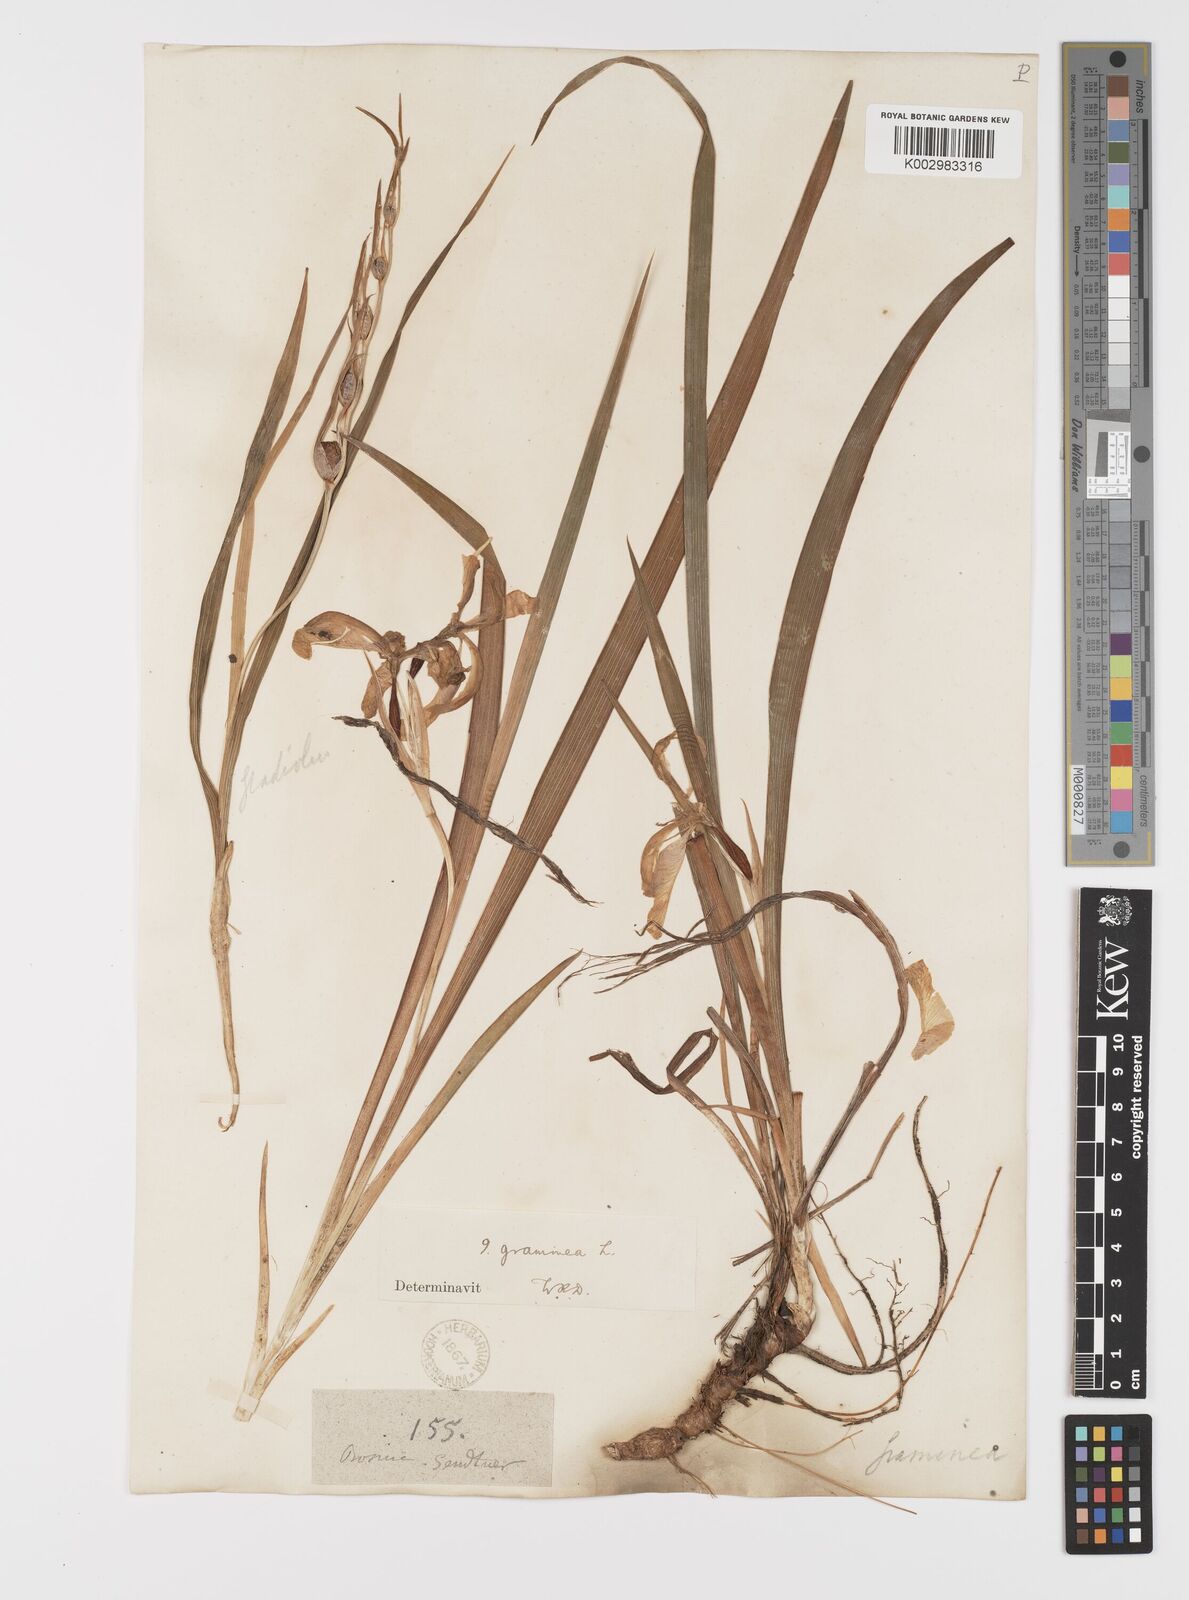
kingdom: Plantae
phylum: Tracheophyta
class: Liliopsida
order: Asparagales
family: Iridaceae
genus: Iris
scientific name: Iris graminea
